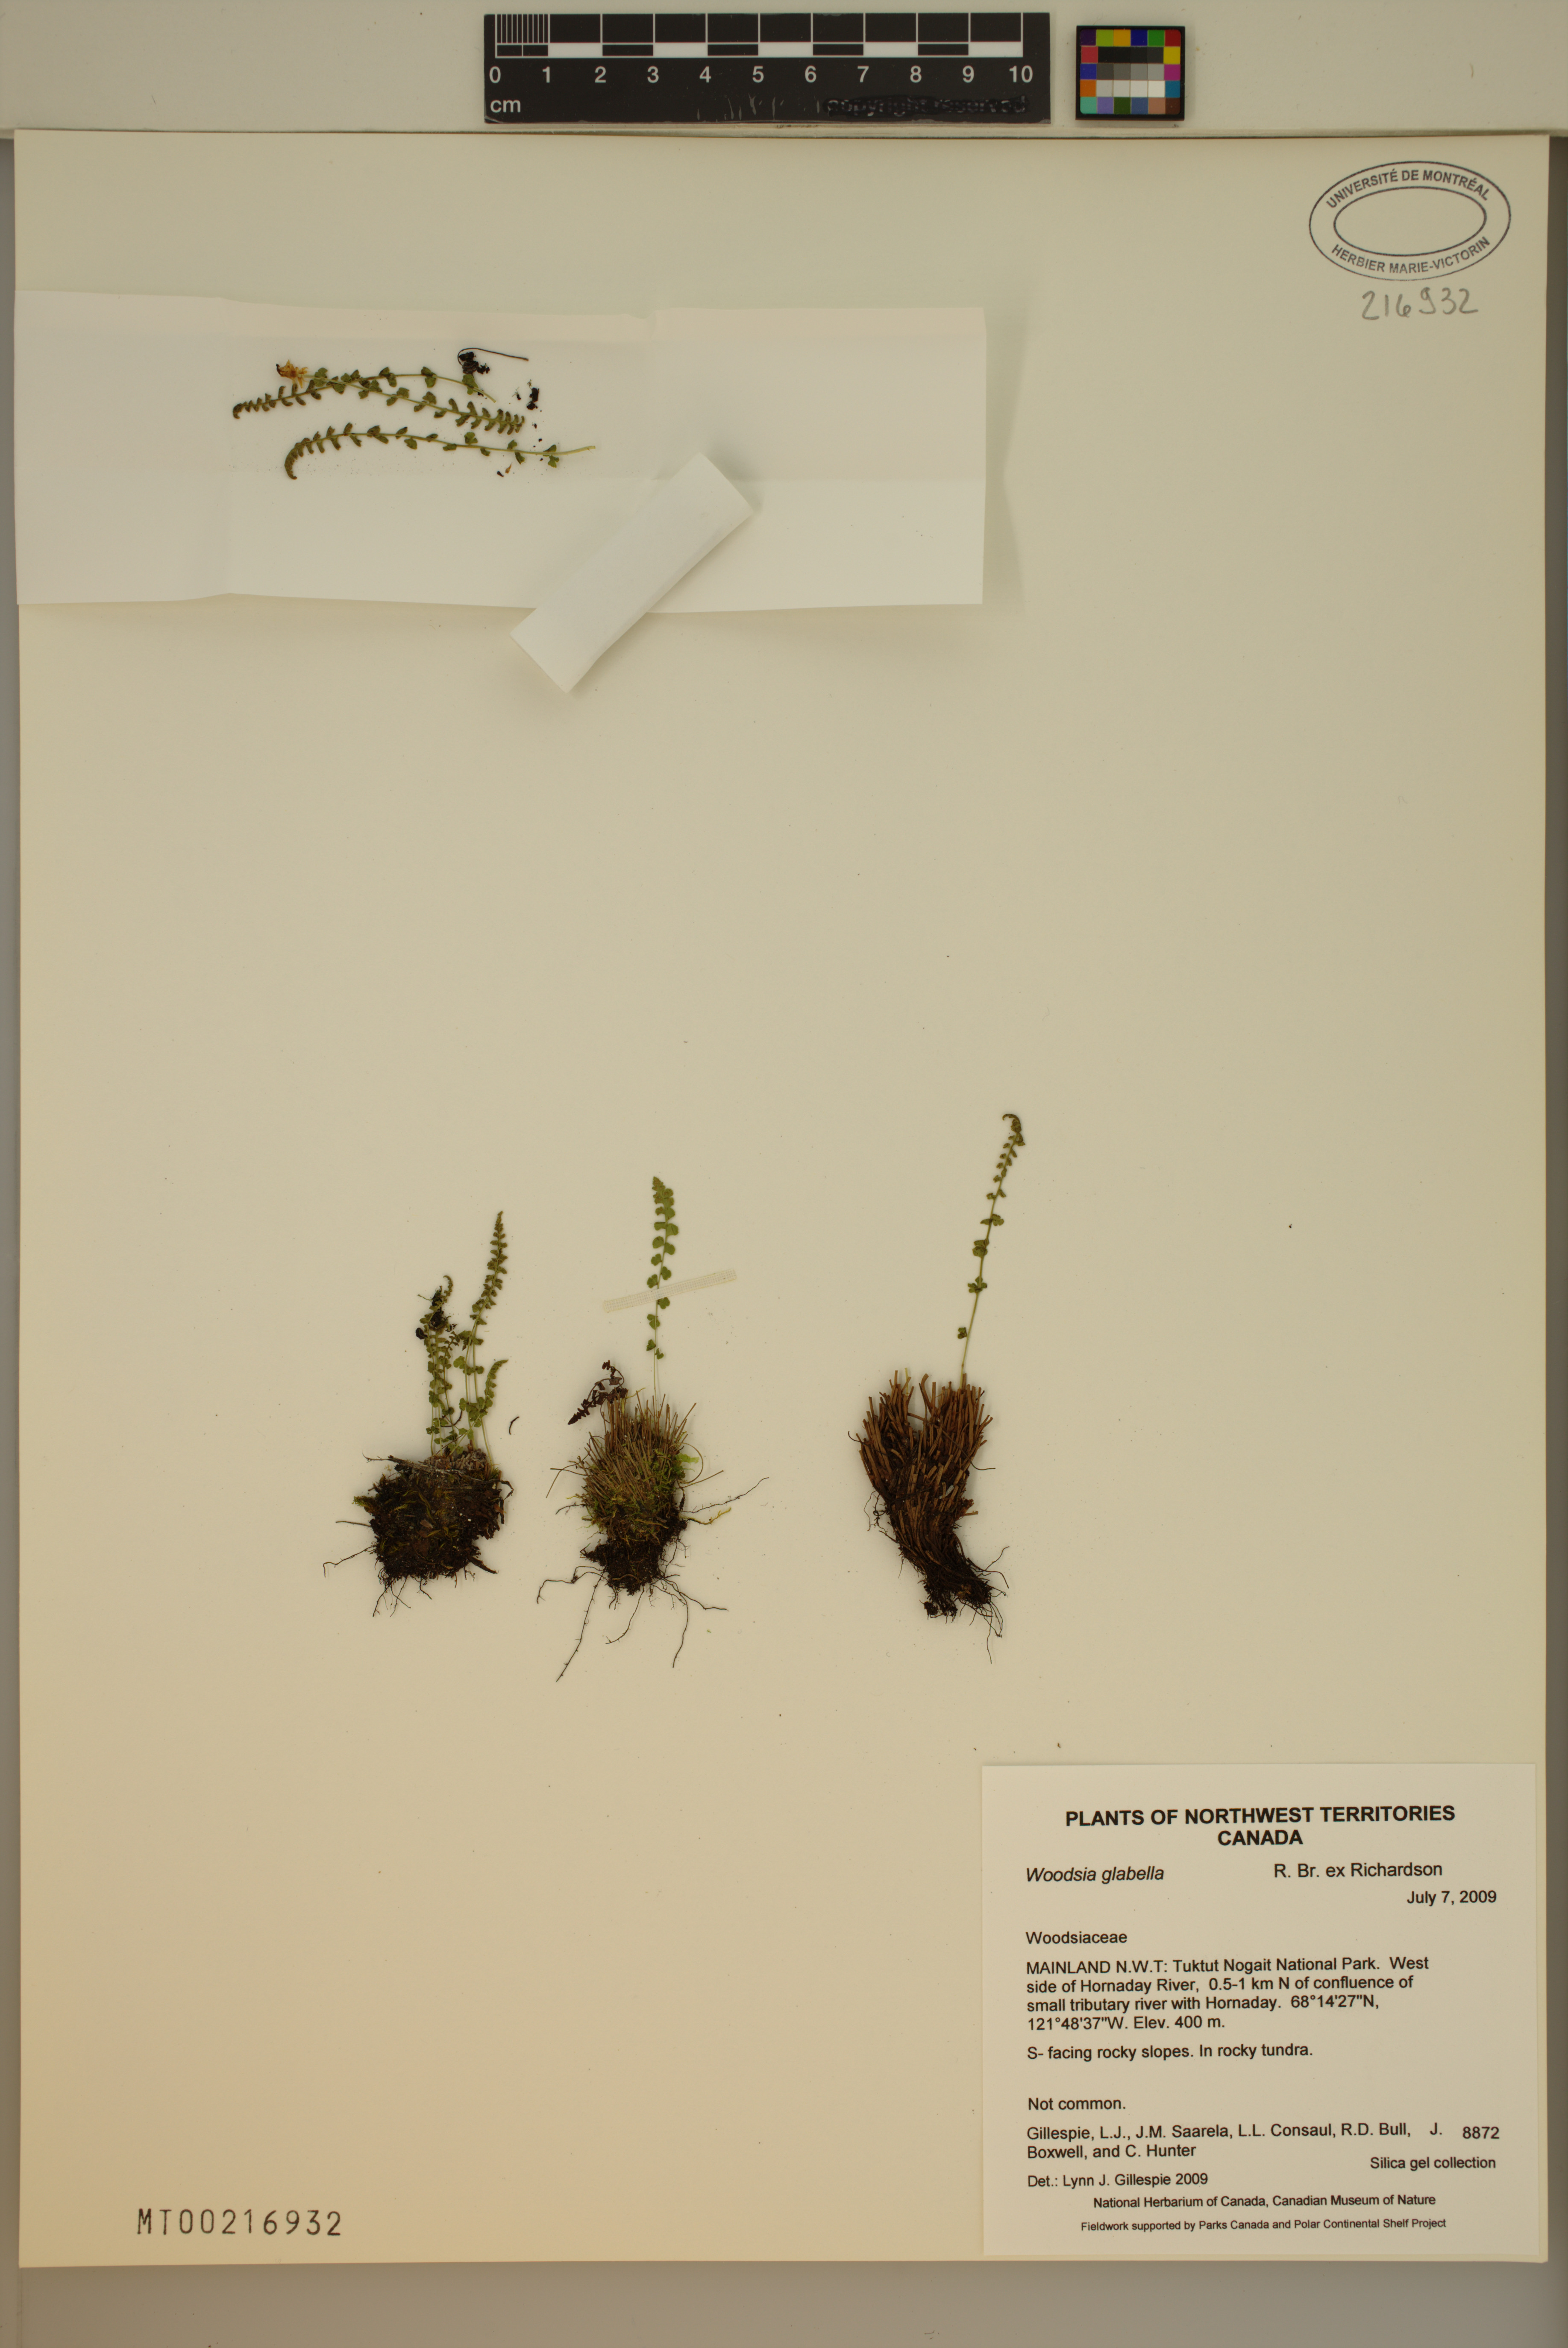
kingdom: Plantae
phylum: Tracheophyta
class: Polypodiopsida
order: Polypodiales
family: Woodsiaceae
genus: Woodsia
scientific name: Woodsia glabella
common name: Smooth woodsia
